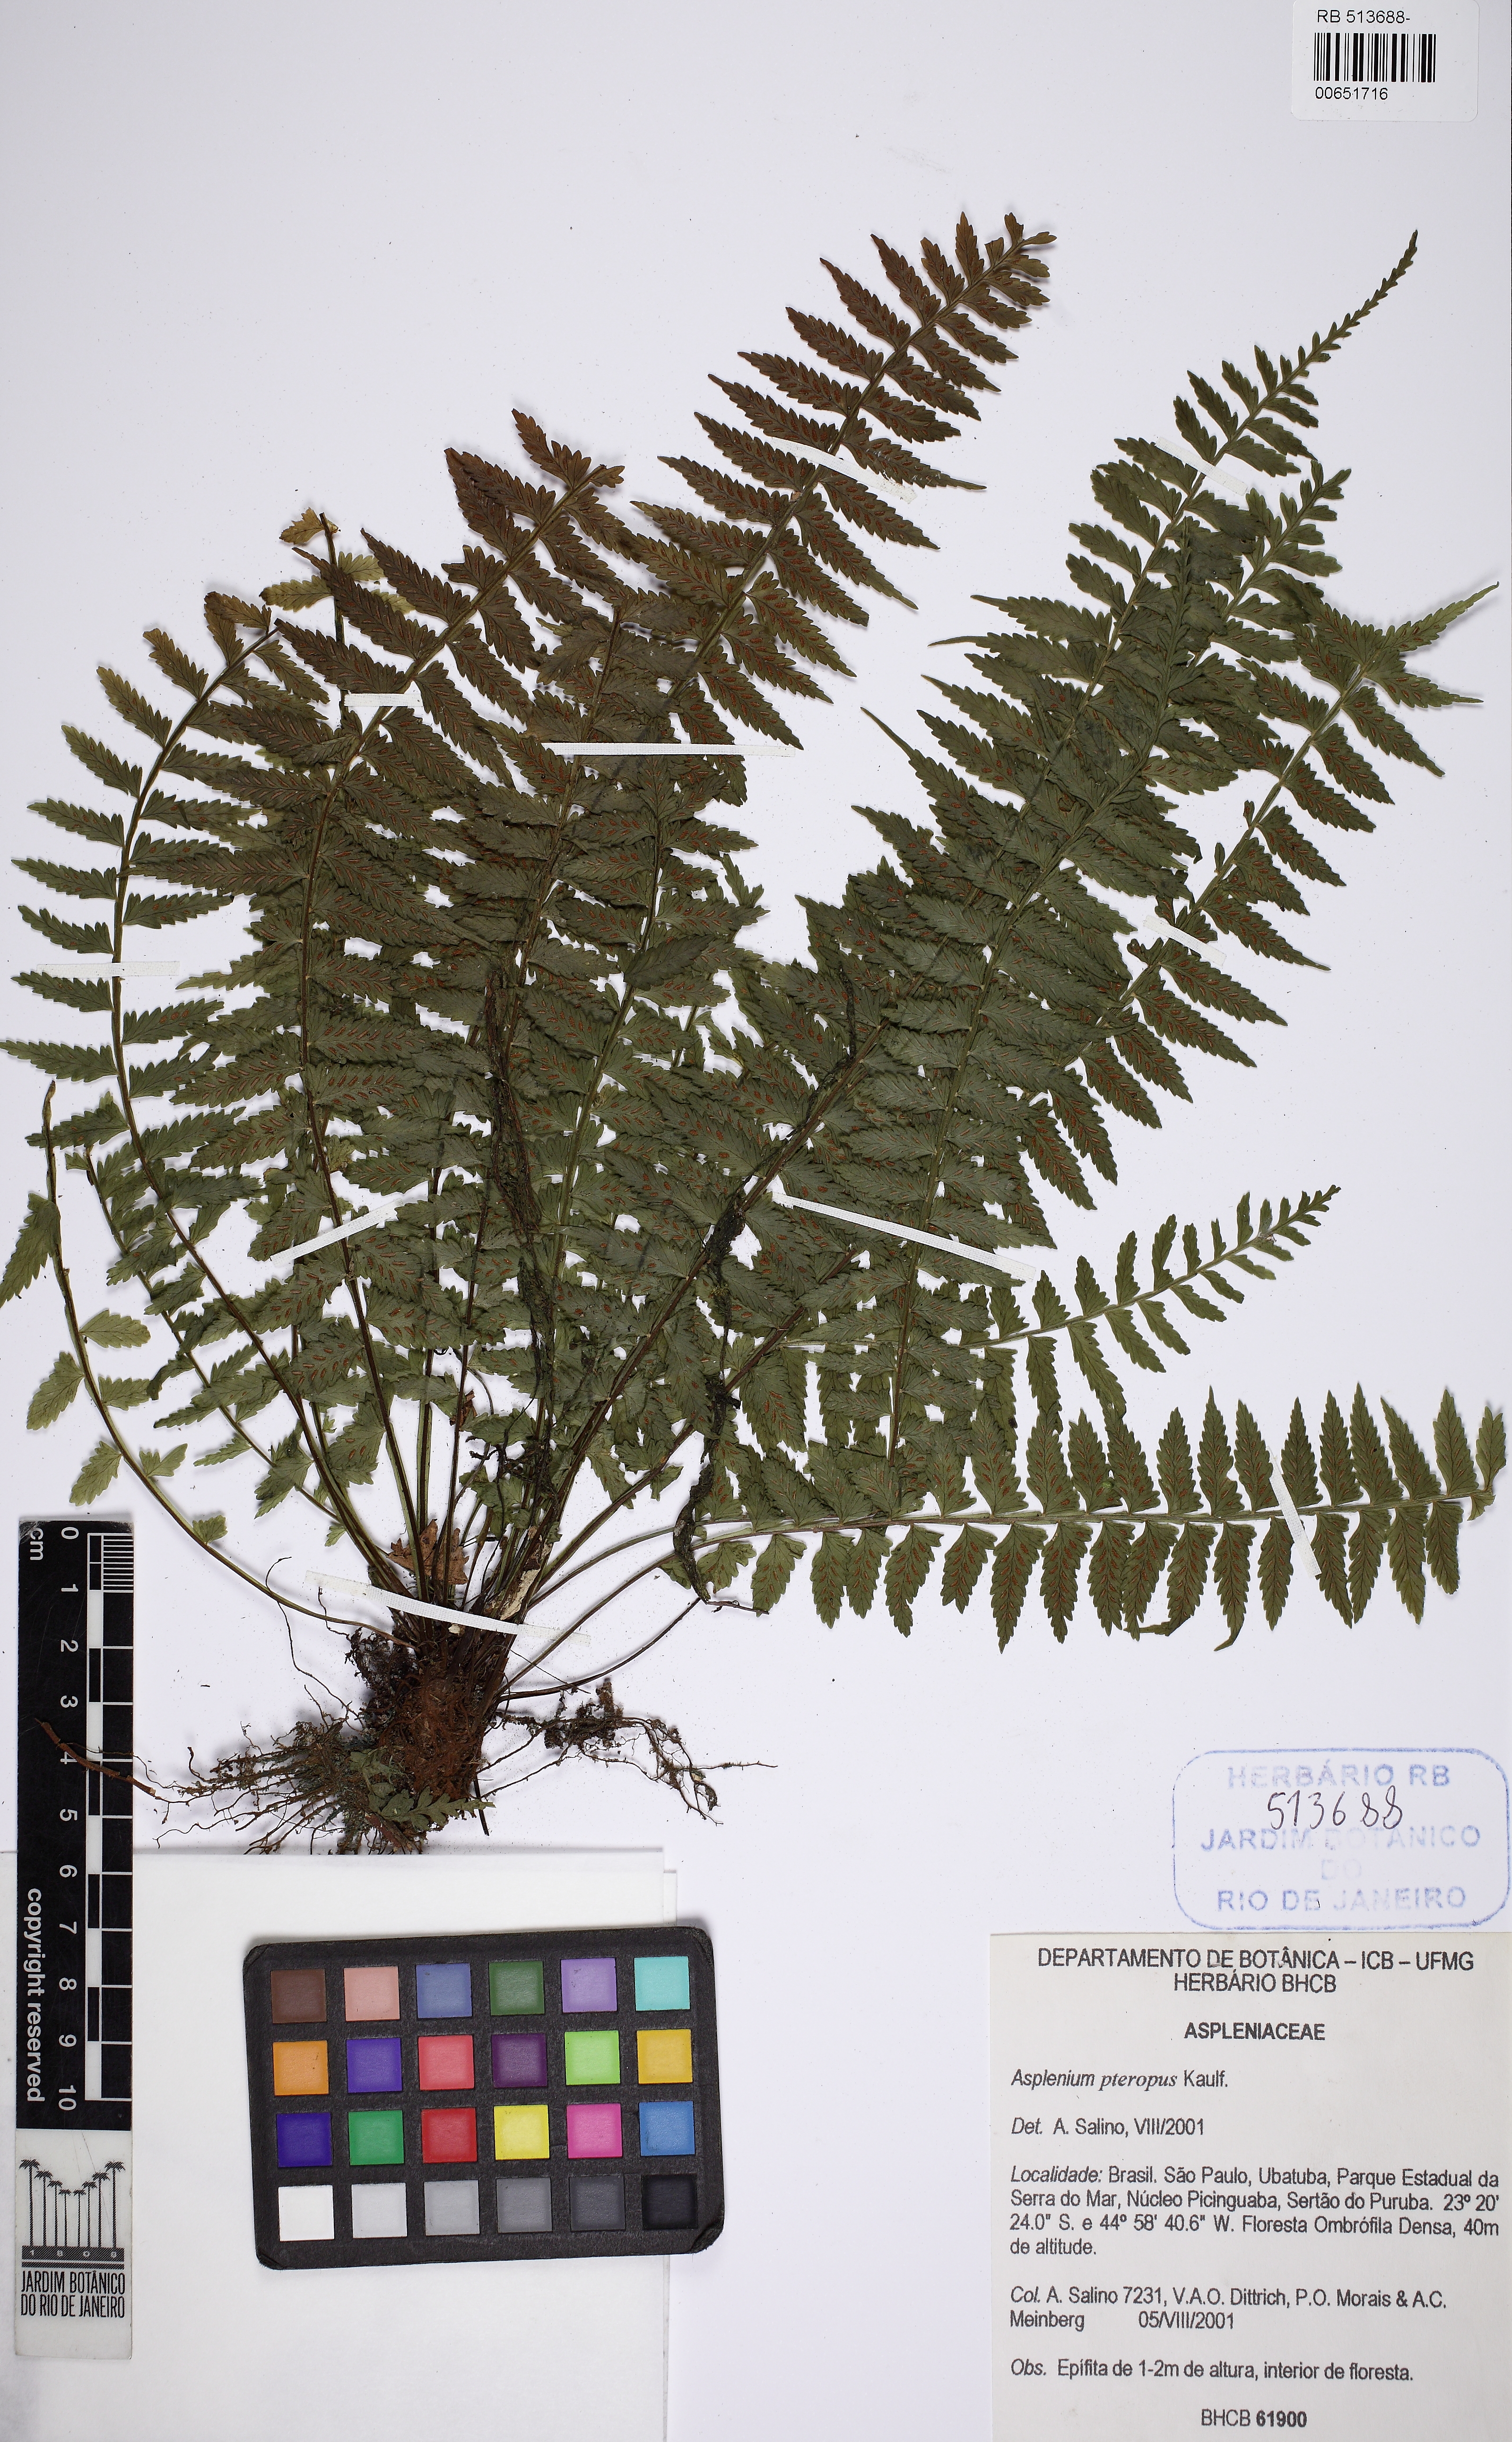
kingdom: Plantae
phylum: Tracheophyta
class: Polypodiopsida
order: Polypodiales
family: Aspleniaceae
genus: Asplenium
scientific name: Asplenium pteropus
